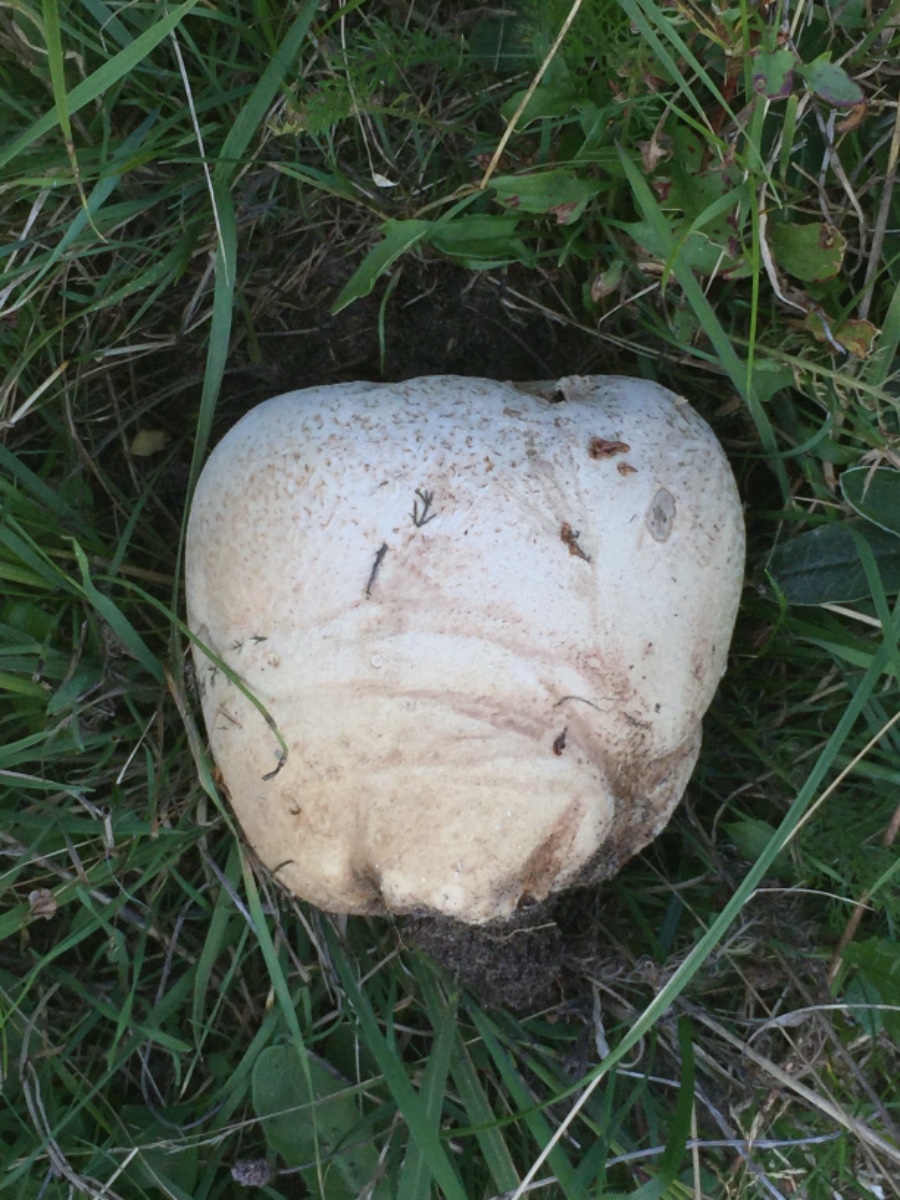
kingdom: Fungi
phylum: Basidiomycota
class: Agaricomycetes
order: Agaricales
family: Lycoperdaceae
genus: Bovistella
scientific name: Bovistella utriformis
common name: skællet støvbold
